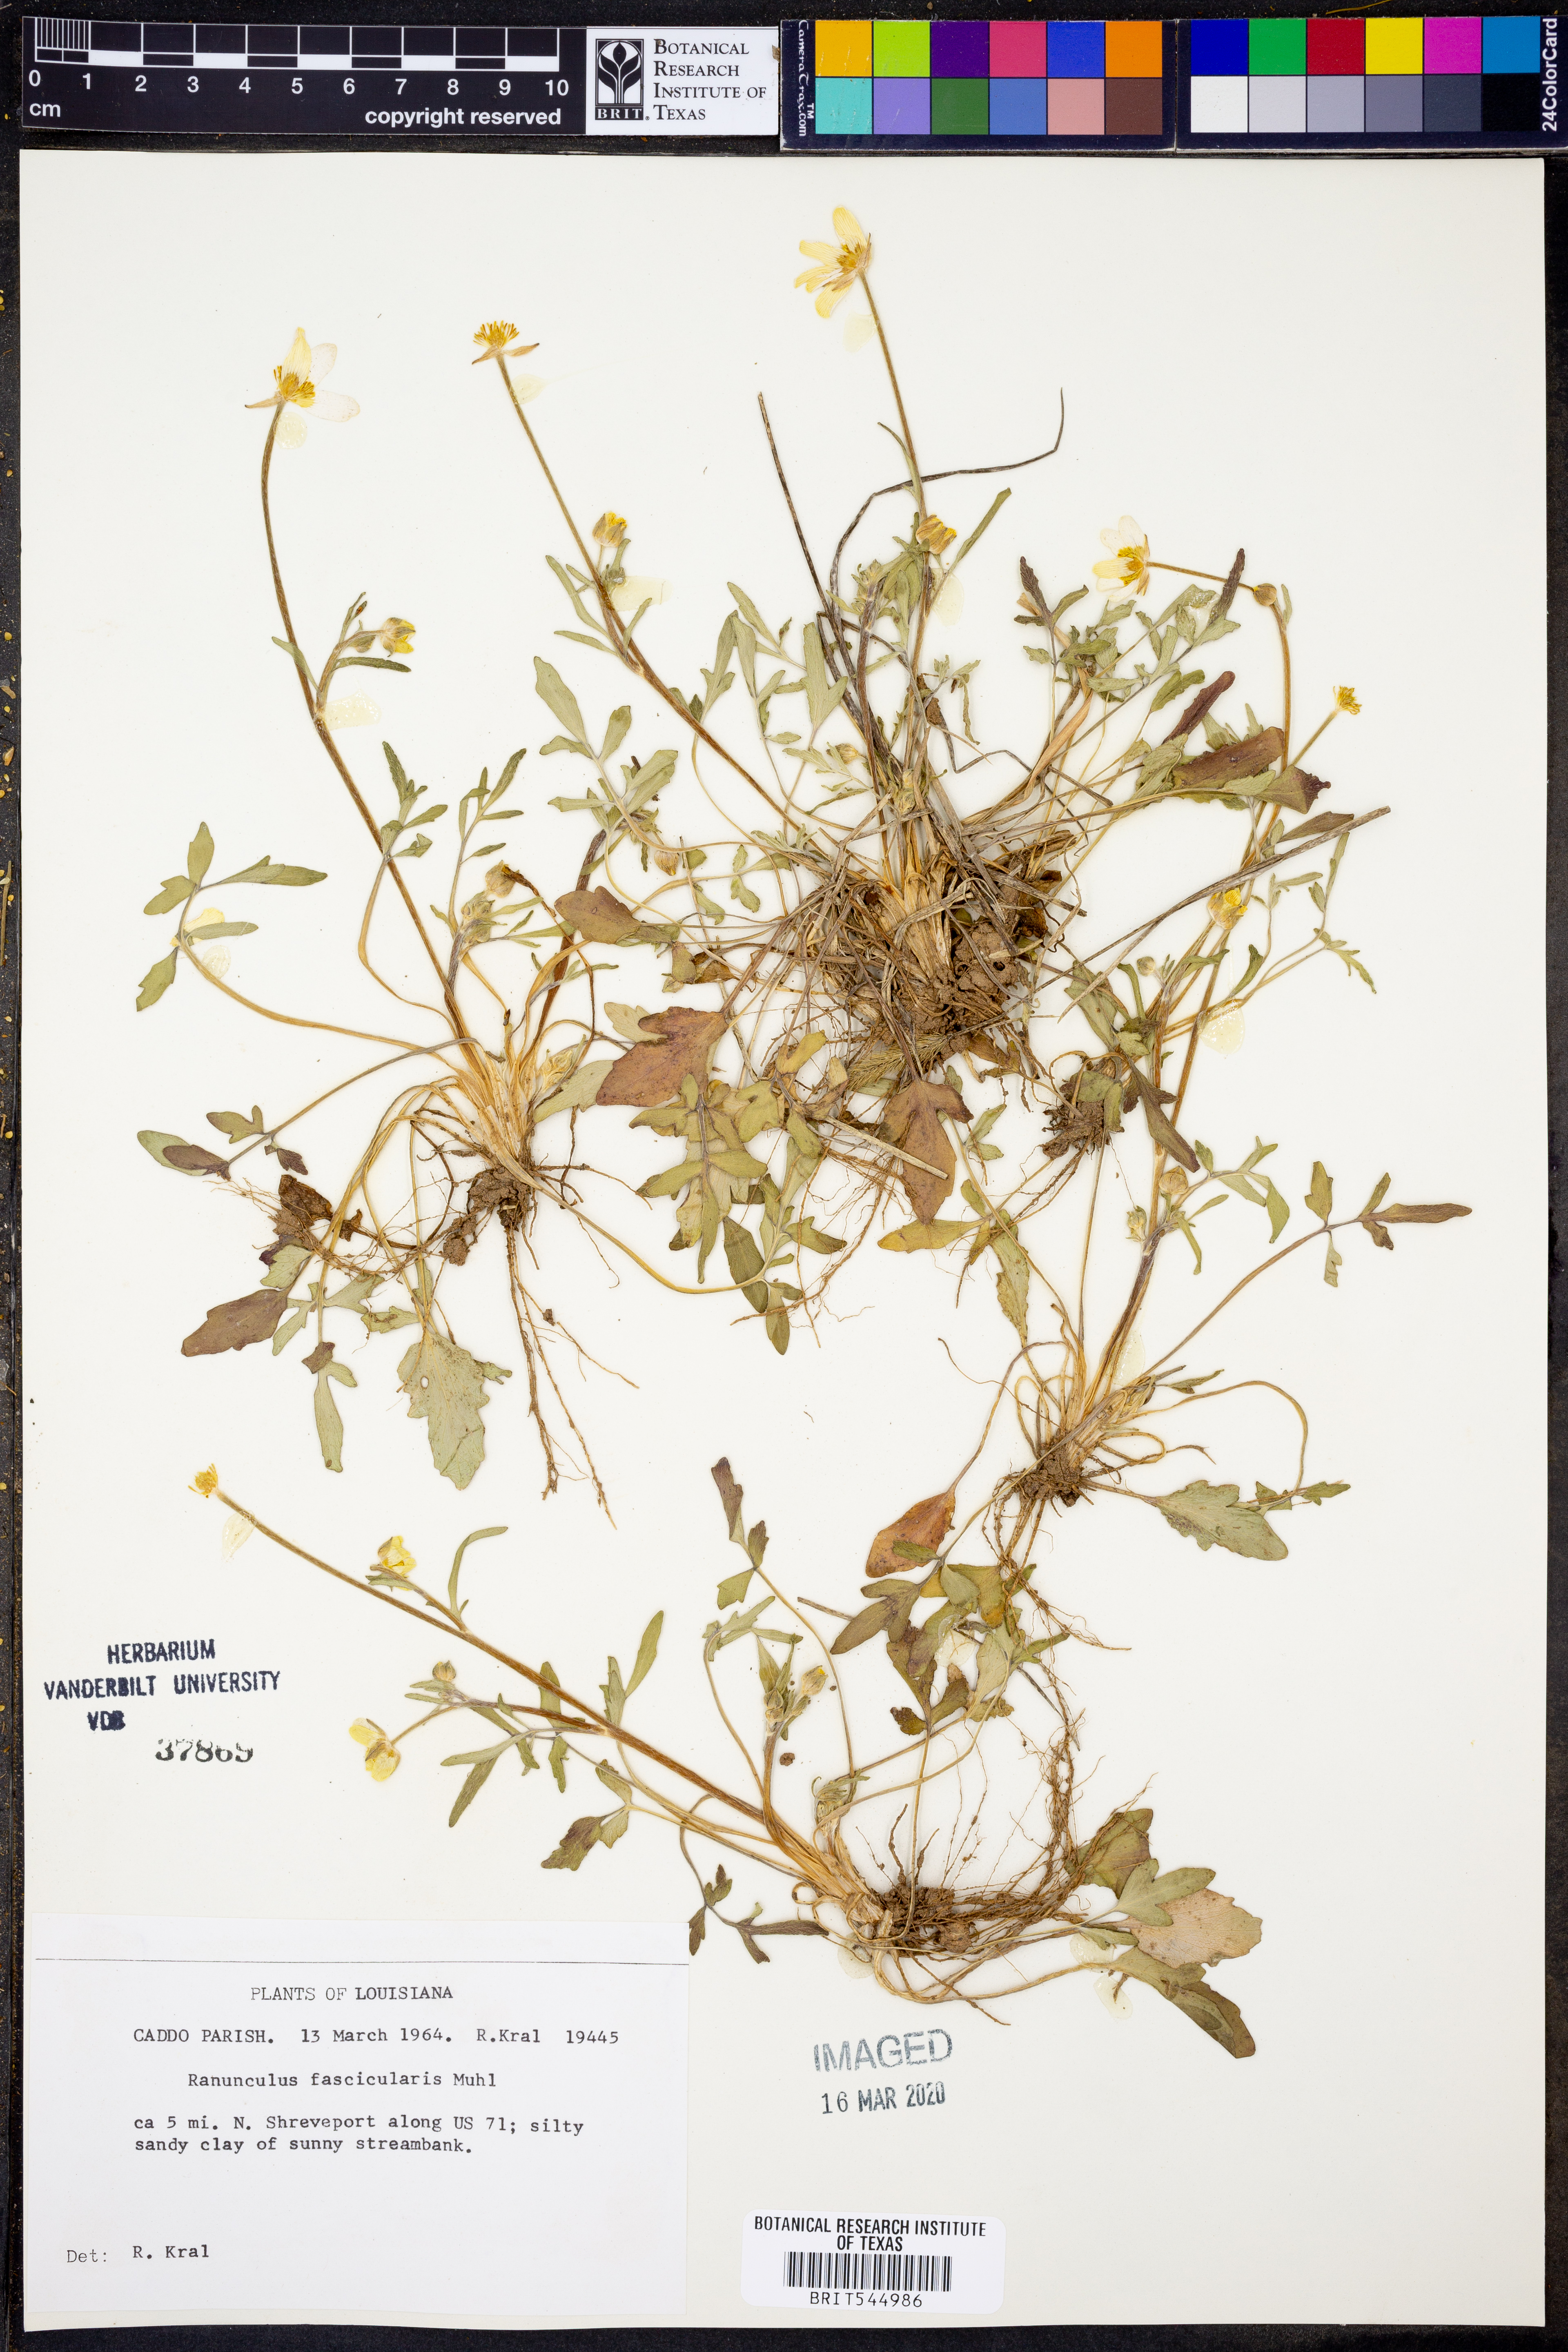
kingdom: Plantae
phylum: Tracheophyta
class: Magnoliopsida
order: Ranunculales
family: Ranunculaceae
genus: Ranunculus
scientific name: Ranunculus fascicularis
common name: Early buttercup
